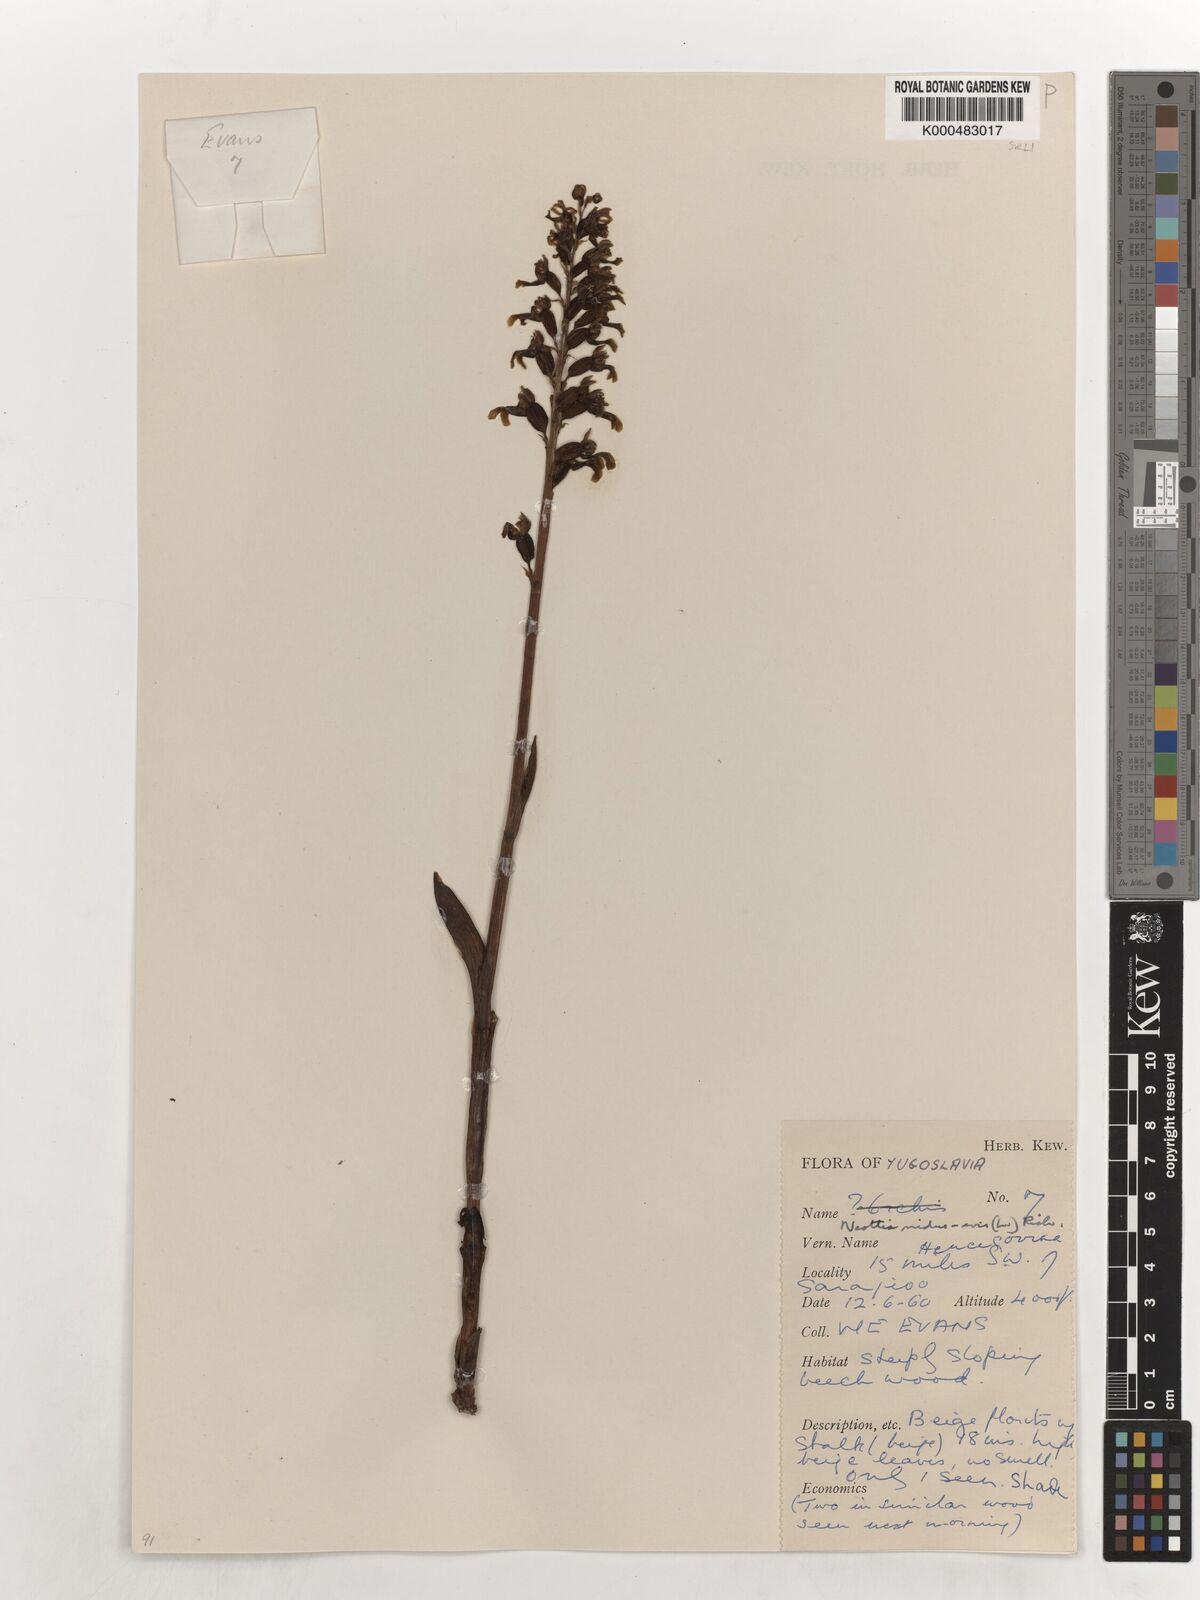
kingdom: Plantae
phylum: Tracheophyta
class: Liliopsida
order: Asparagales
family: Orchidaceae
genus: Neottia
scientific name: Neottia nidus-avis
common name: Bird's-nest orchid
